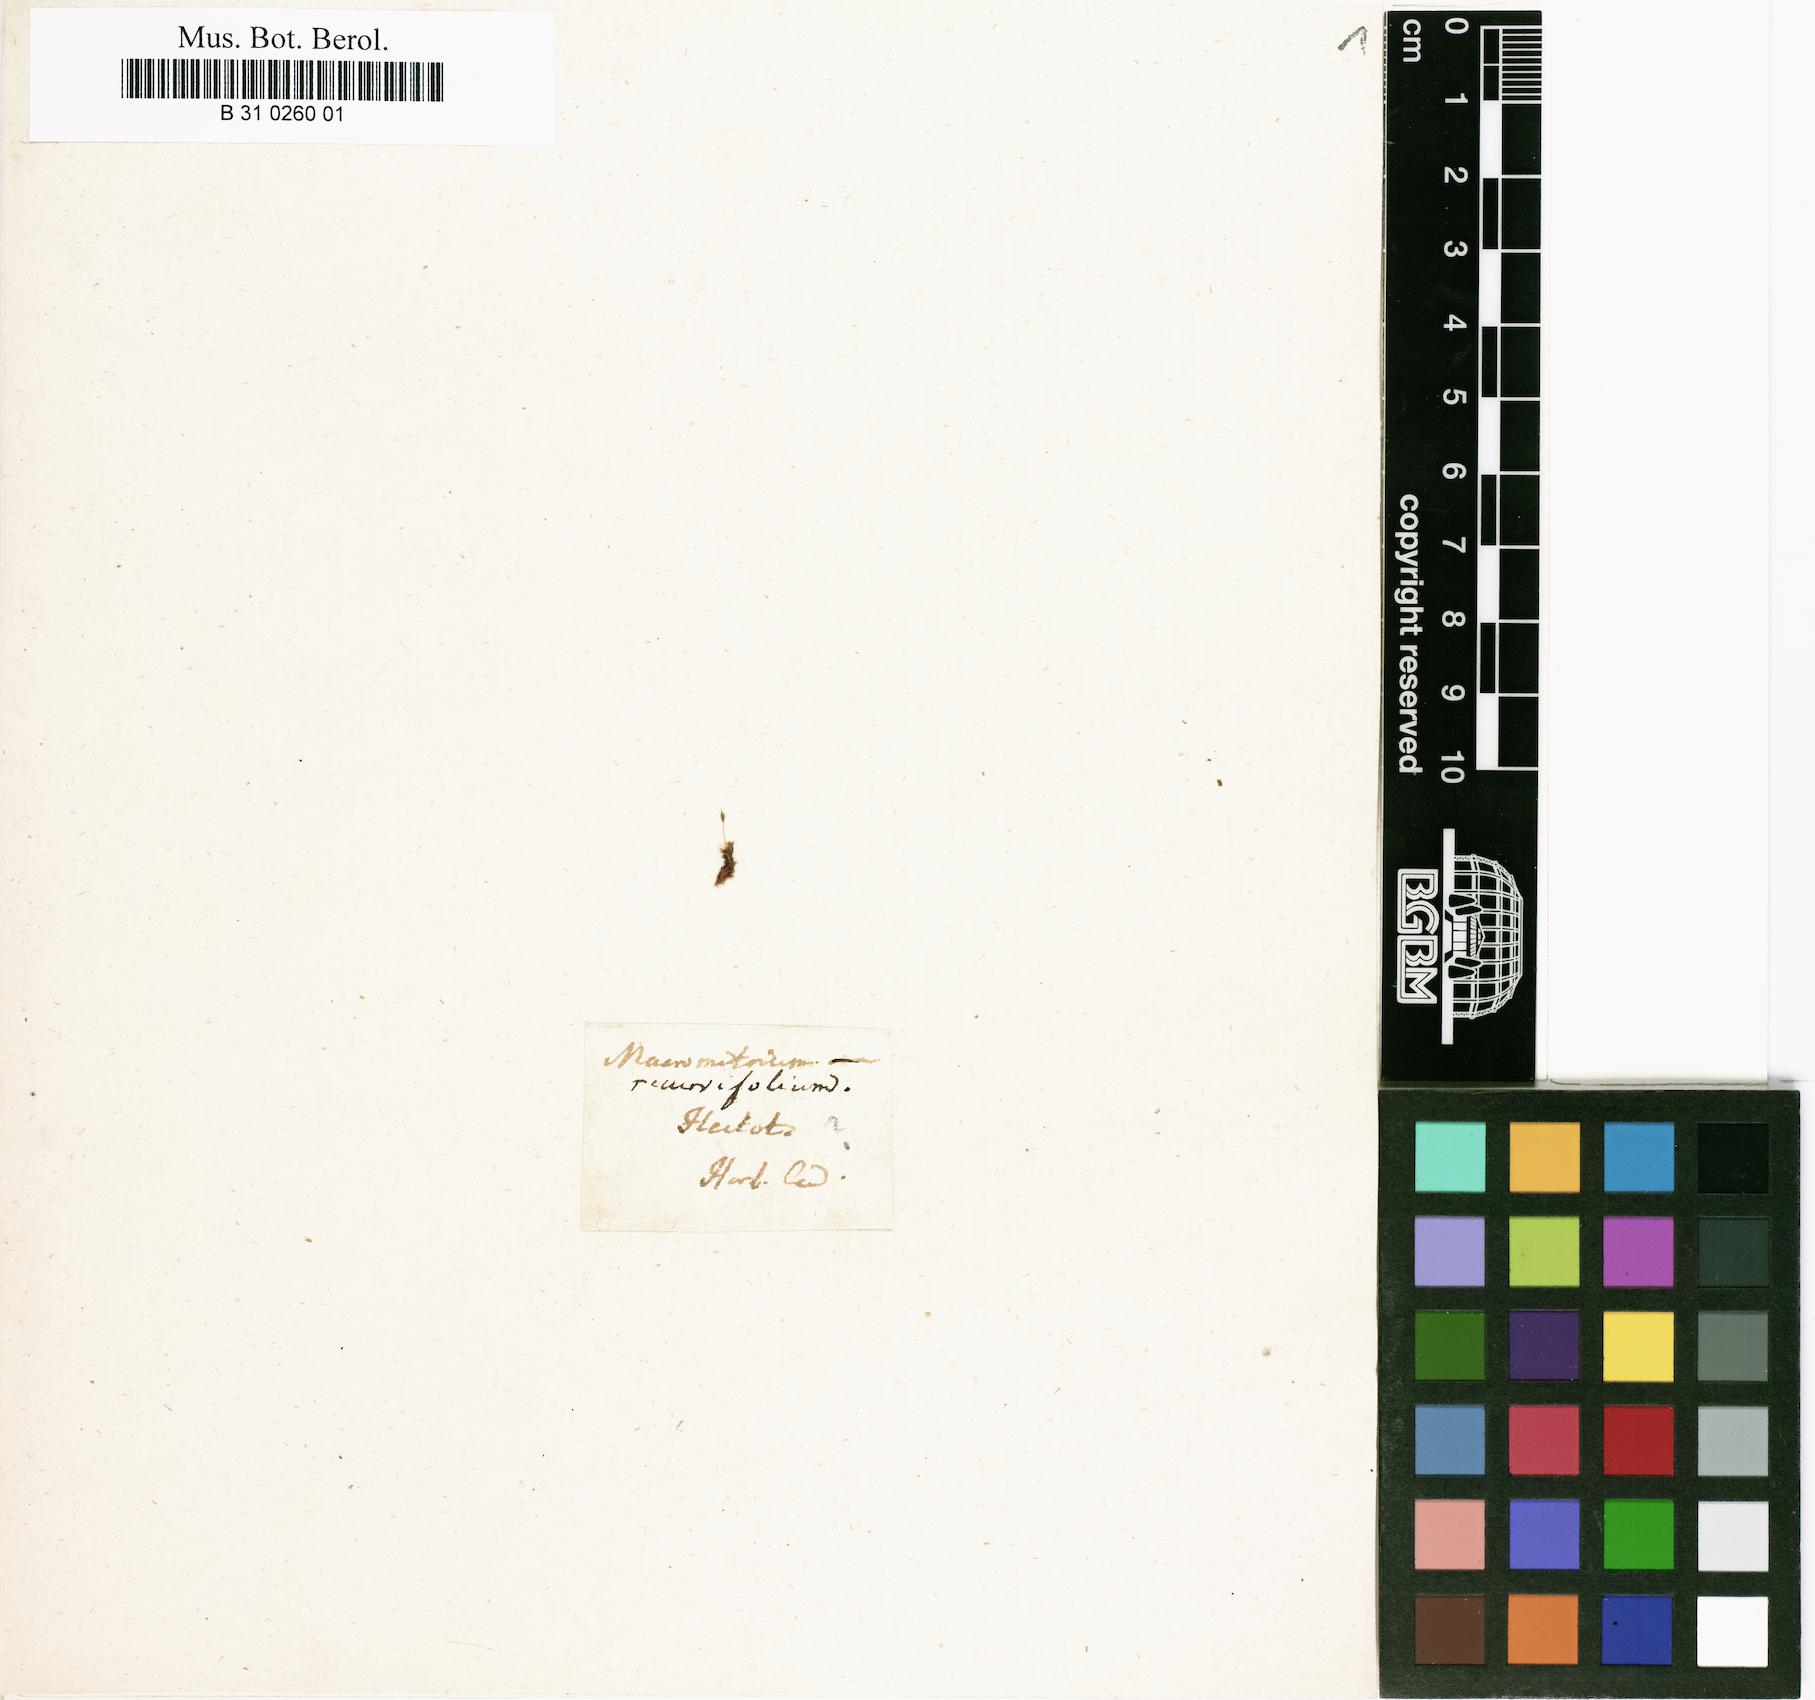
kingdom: Plantae
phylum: Bryophyta
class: Bryopsida
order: Orthotrichales
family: Orthotrichaceae
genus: Orthotrichum
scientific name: Orthotrichum recurvifolium
